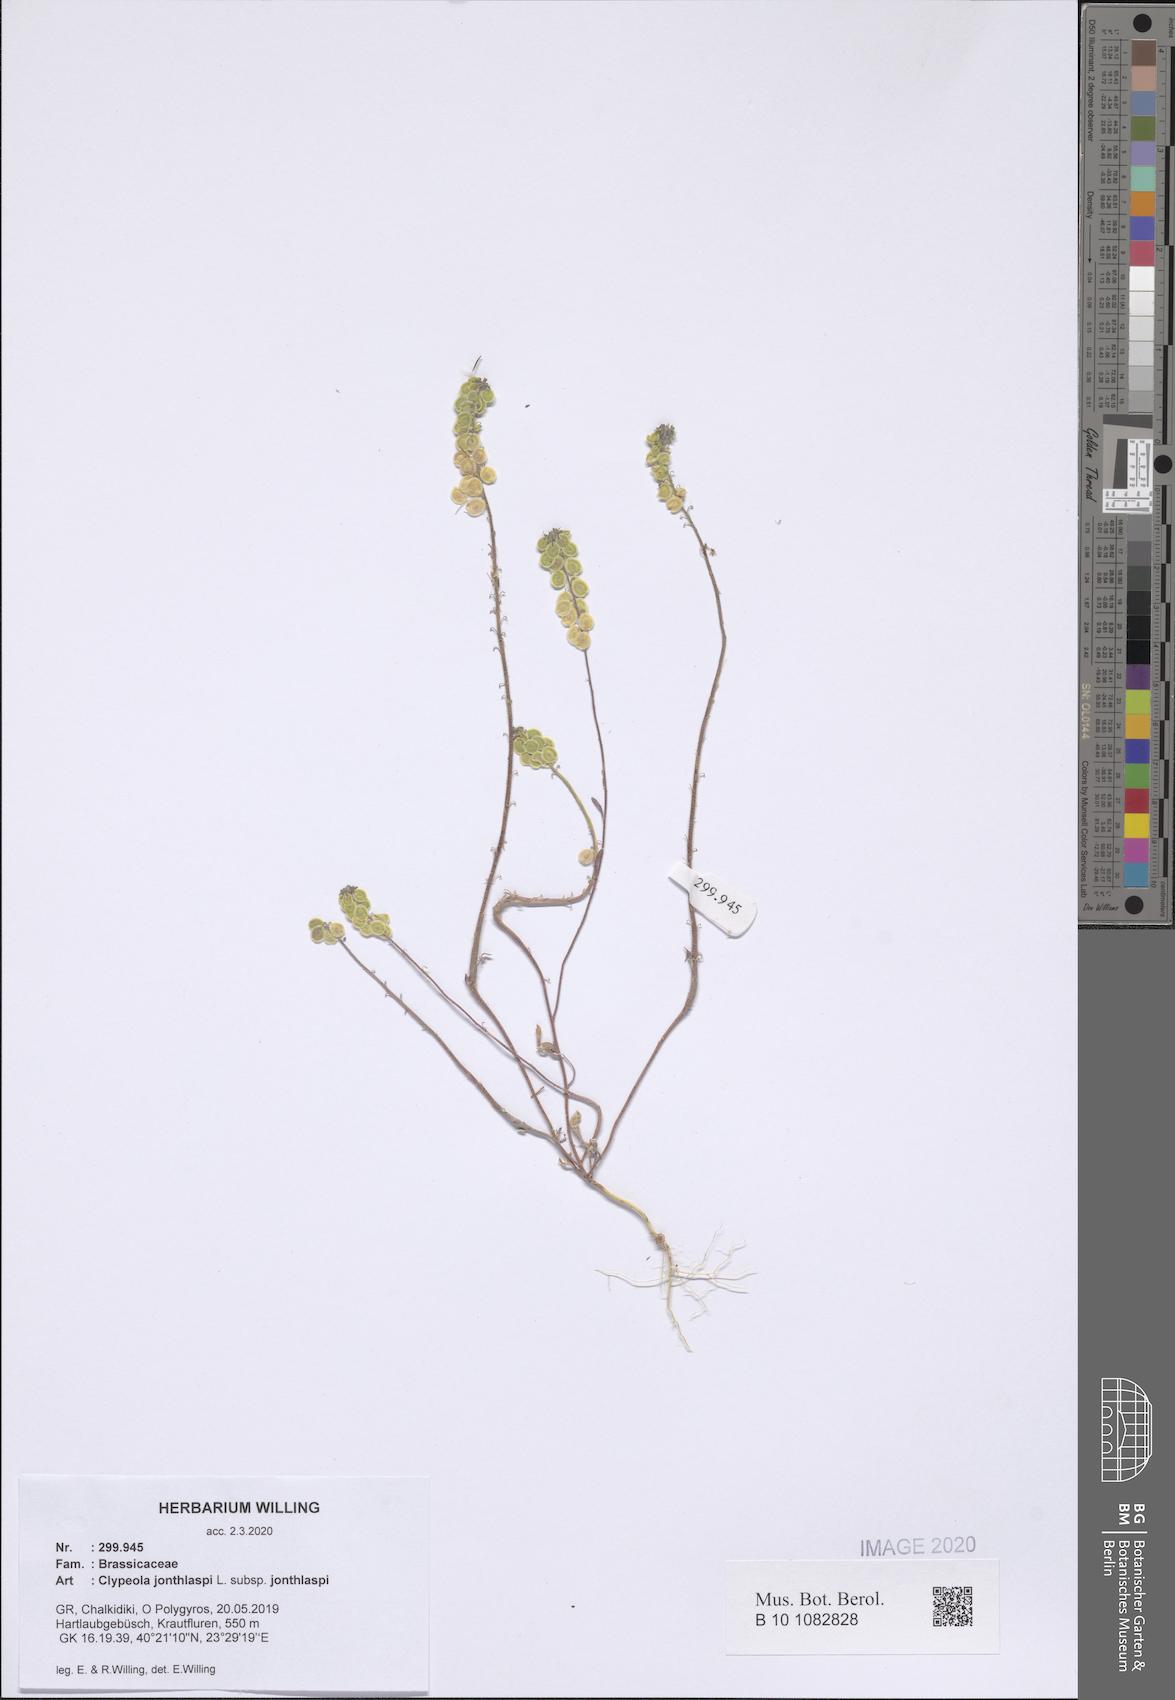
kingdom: Plantae
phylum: Tracheophyta
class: Magnoliopsida
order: Brassicales
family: Brassicaceae
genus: Clypeola
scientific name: Clypeola jonthlaspi
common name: Disk cress
